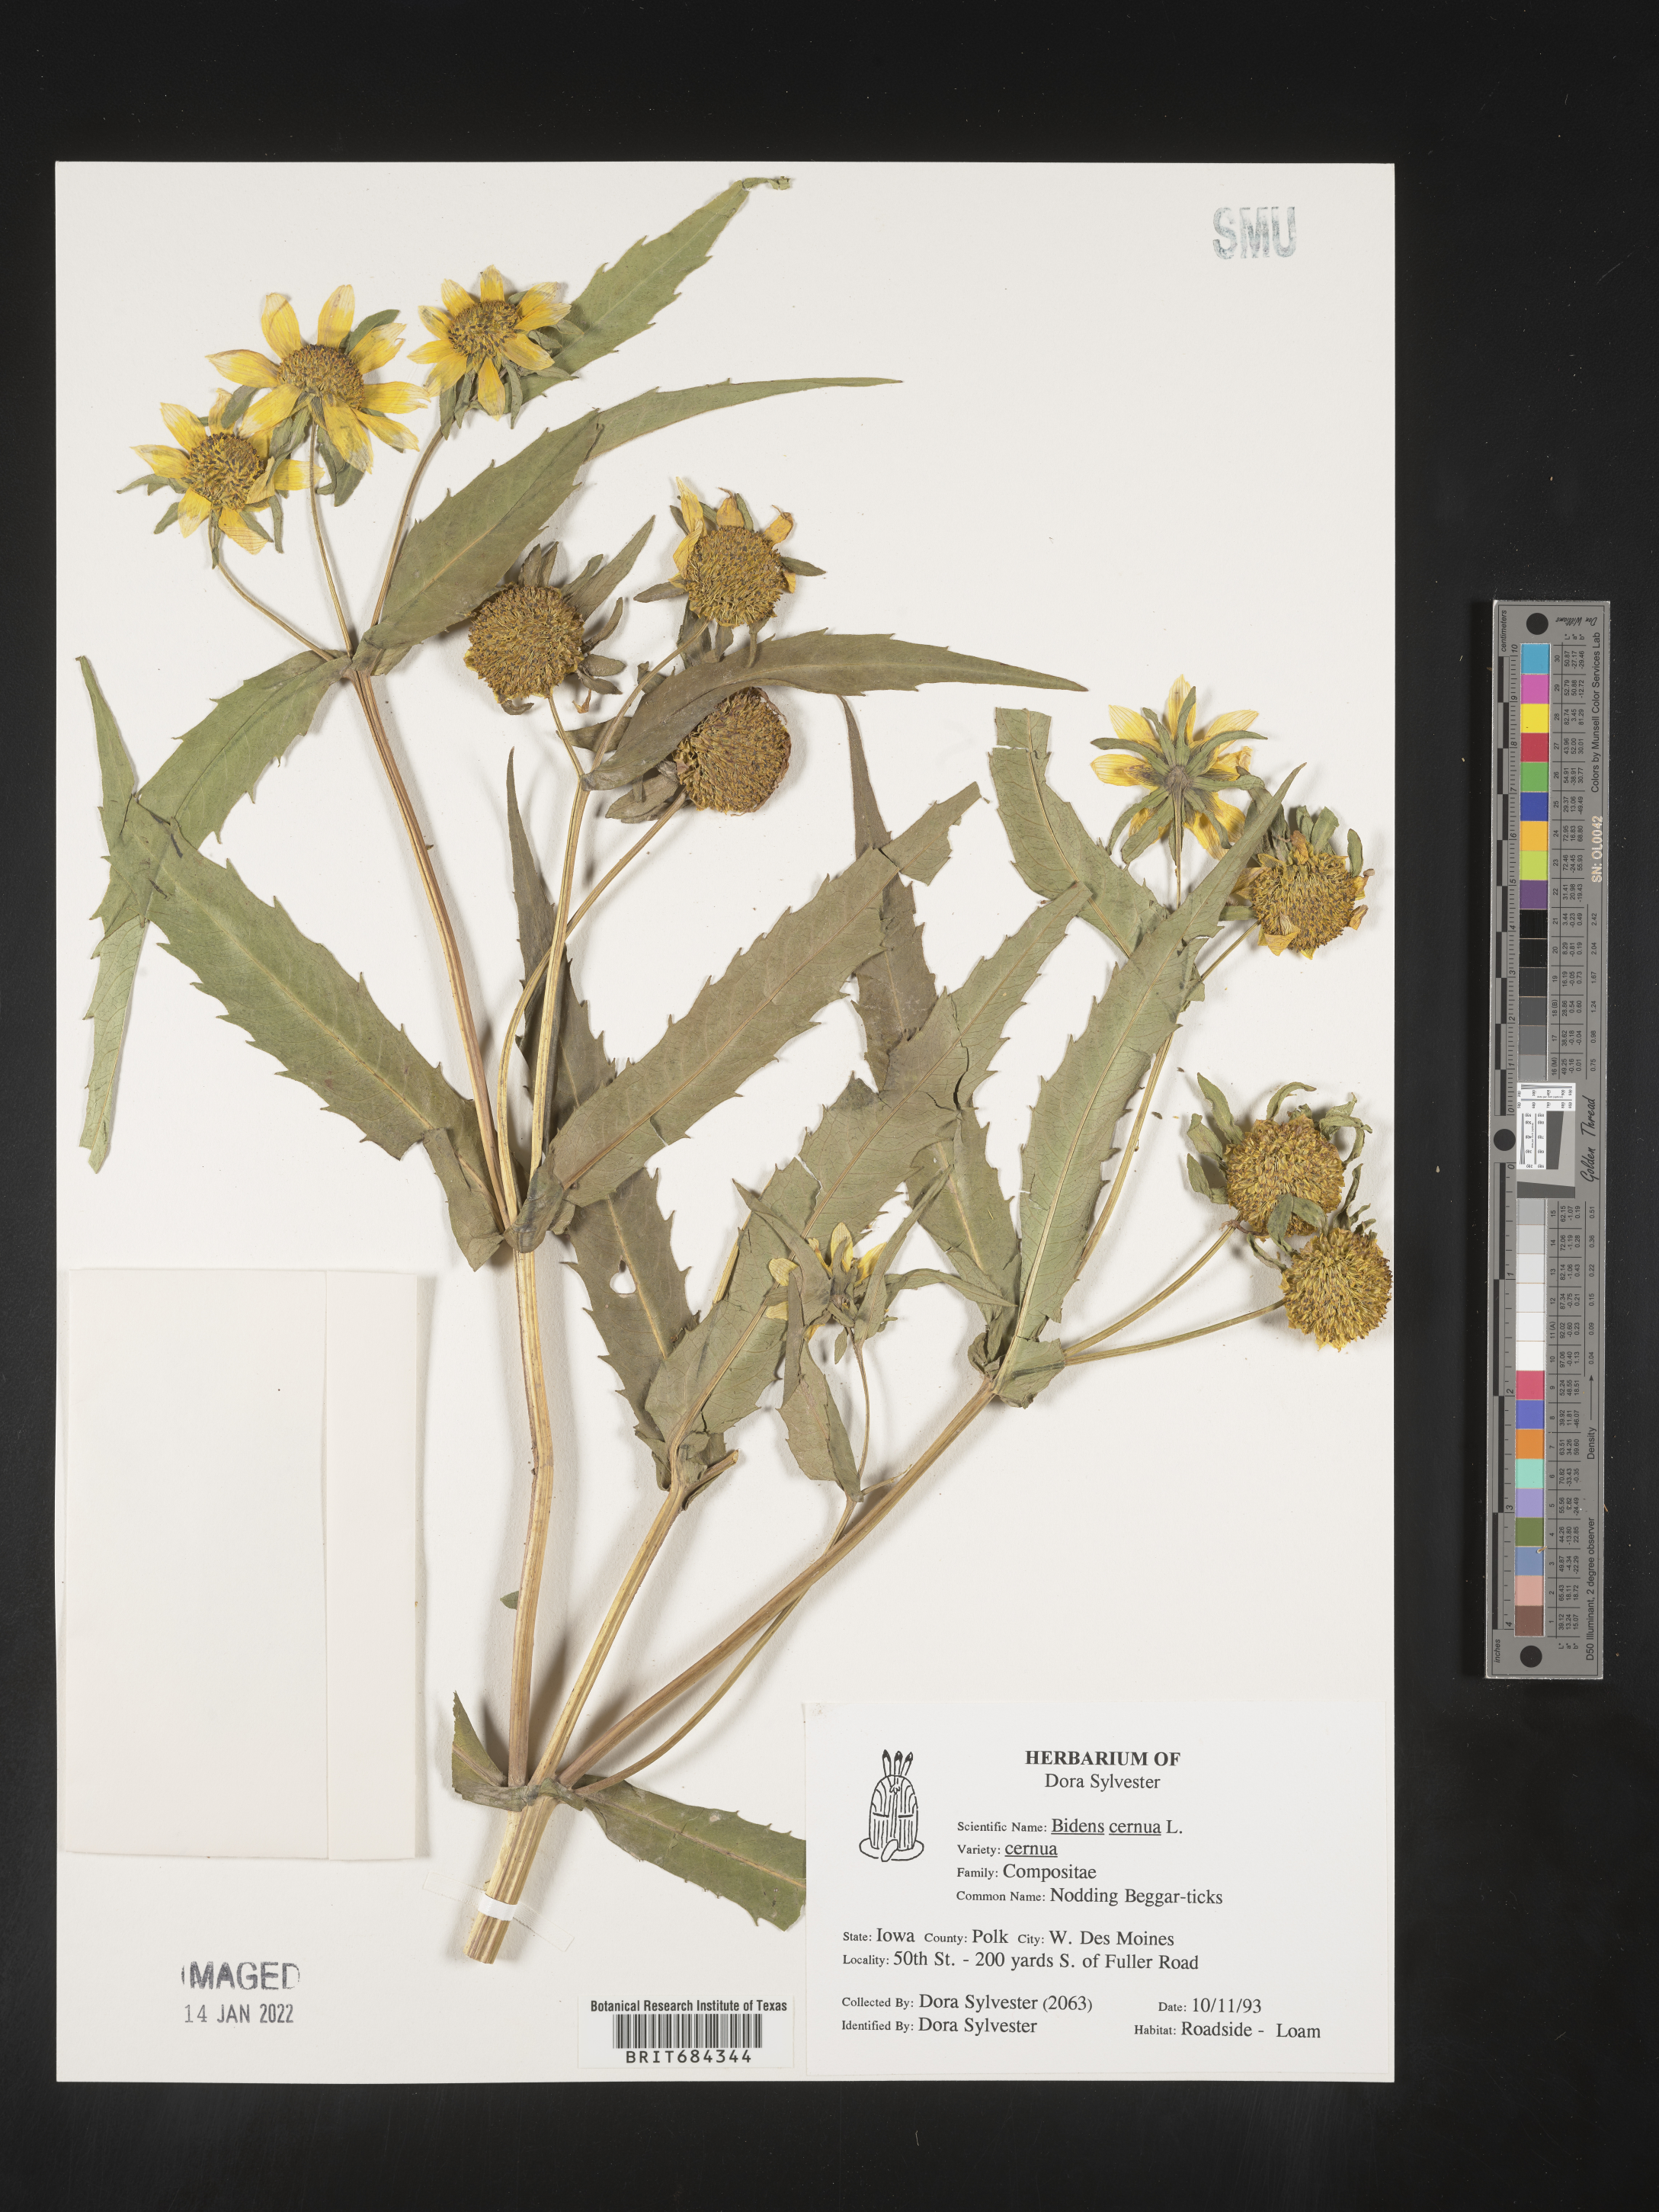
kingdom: Plantae
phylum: Tracheophyta
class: Magnoliopsida
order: Asterales
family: Asteraceae
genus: Bidens
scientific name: Bidens cernua
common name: Nodding bur-marigold
